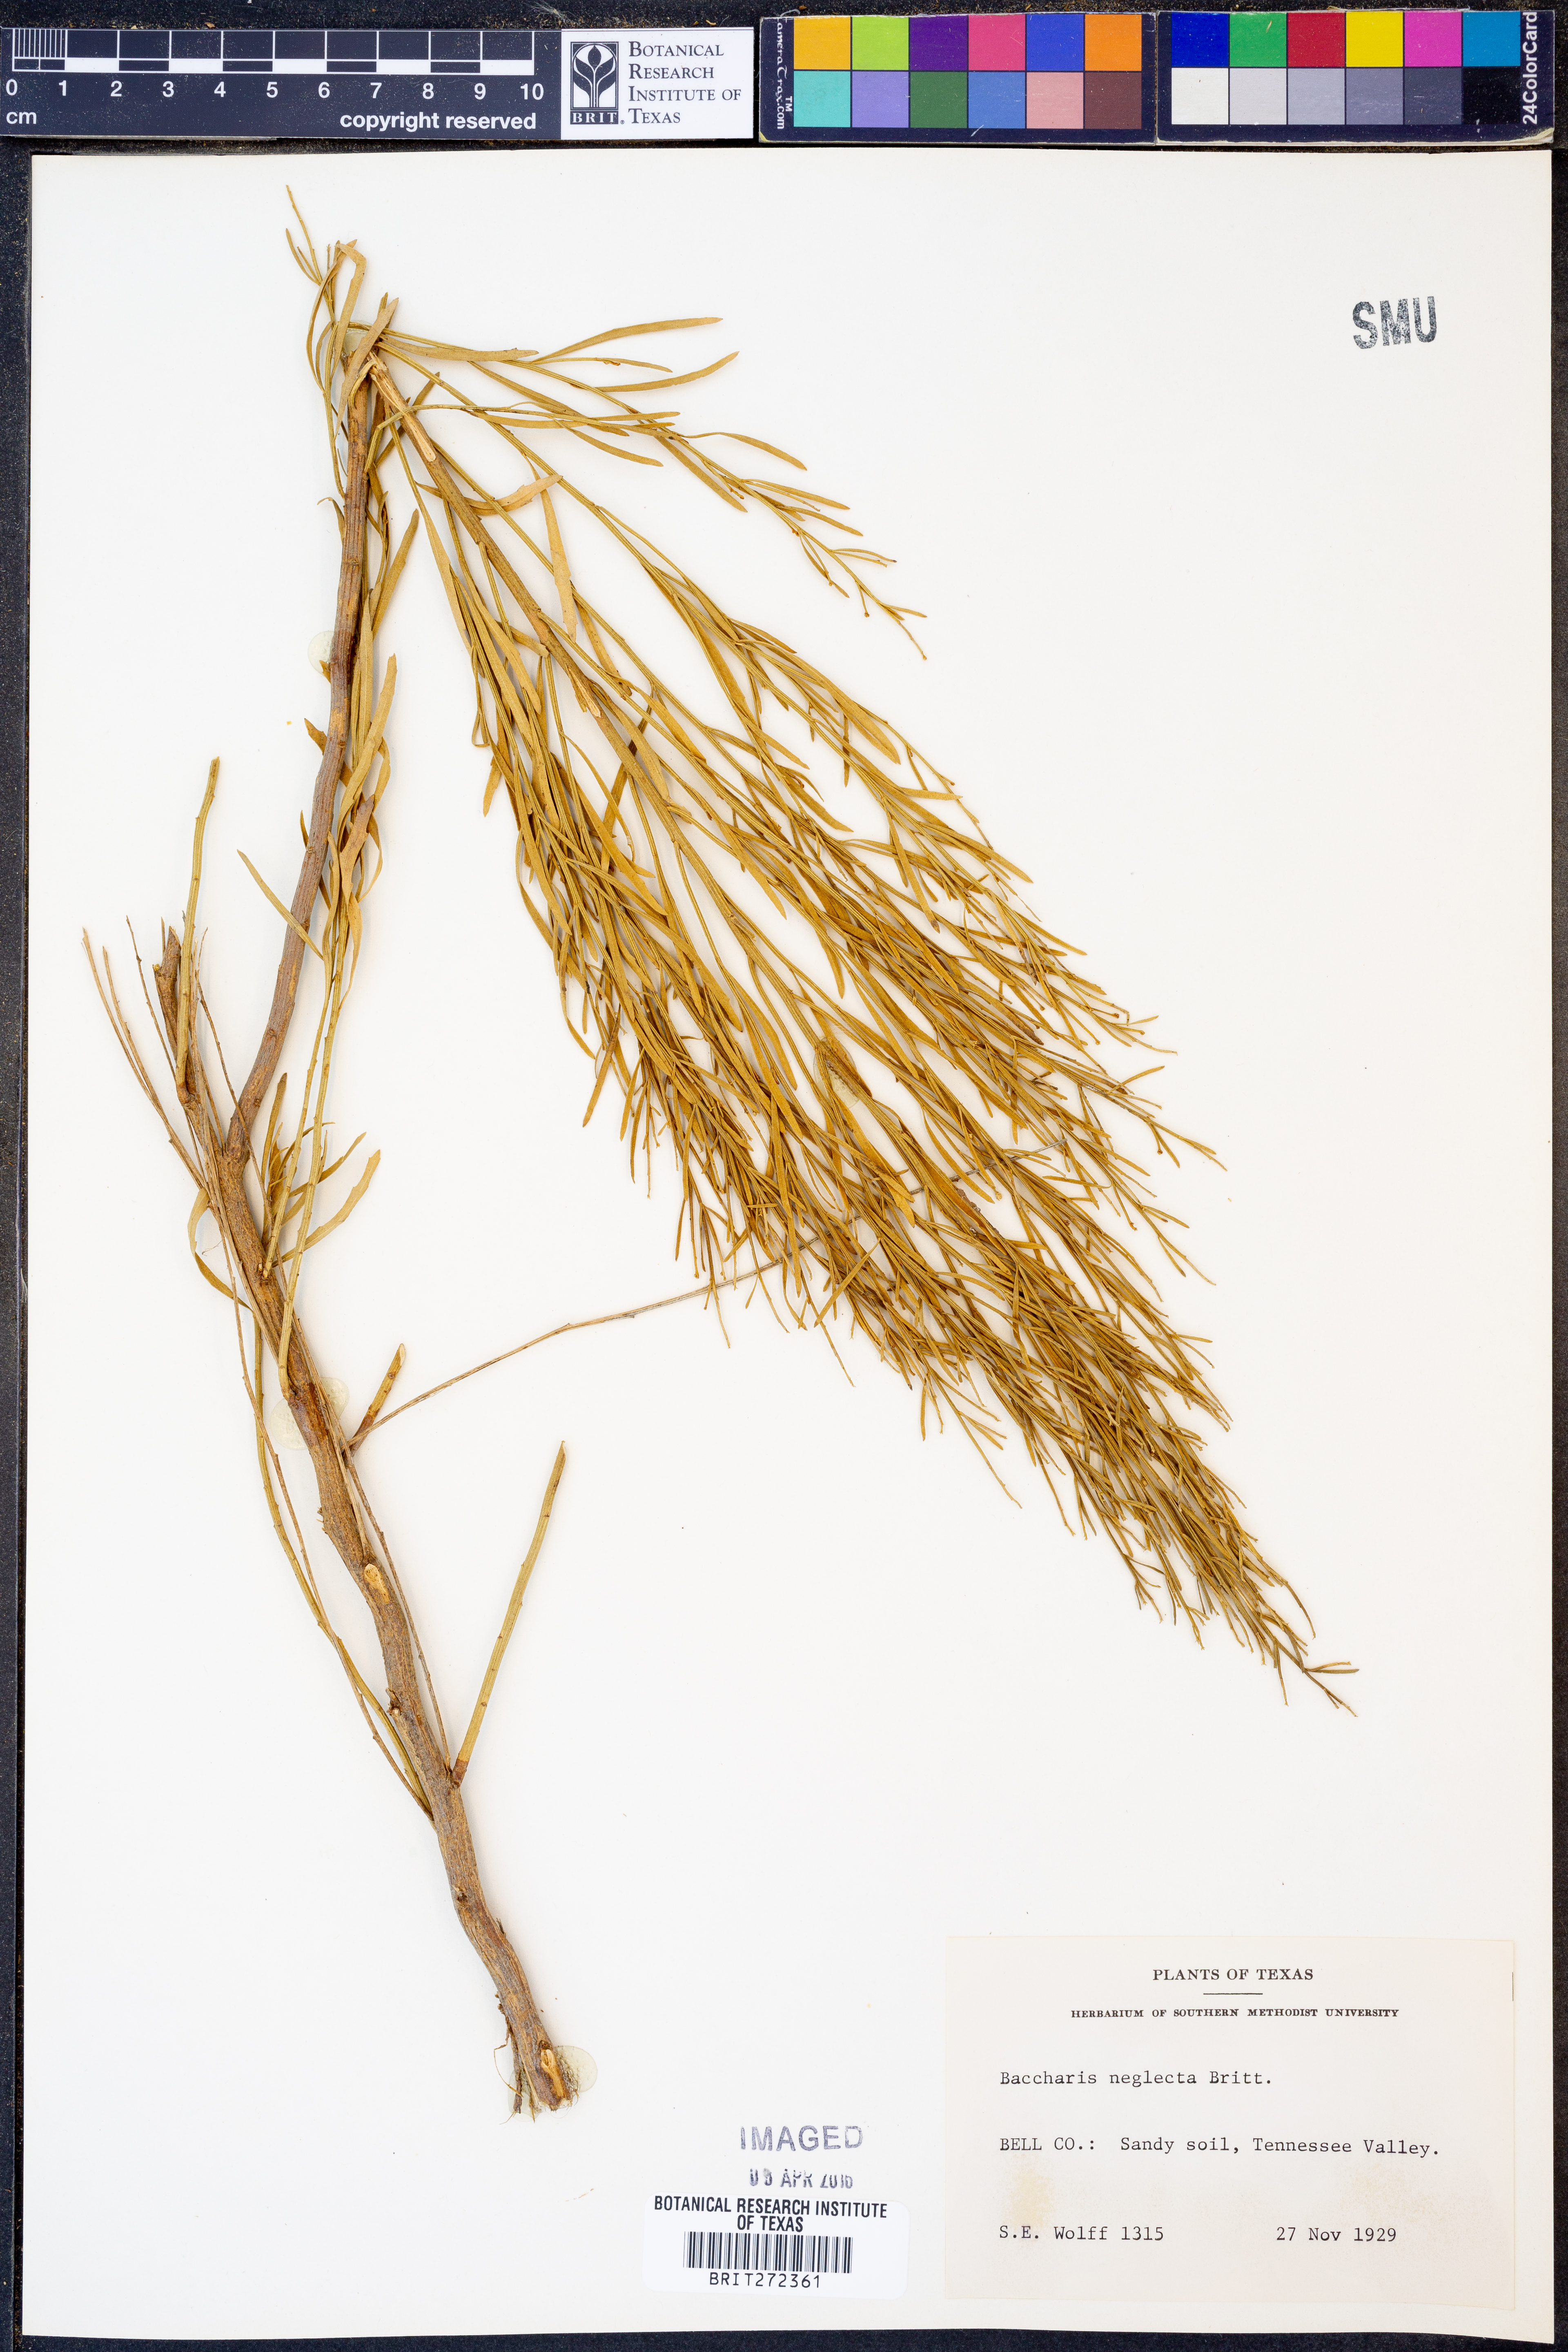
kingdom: Plantae
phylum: Tracheophyta
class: Magnoliopsida
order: Asterales
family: Asteraceae
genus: Baccharis
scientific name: Baccharis neglecta
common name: Roosevelt-weed
